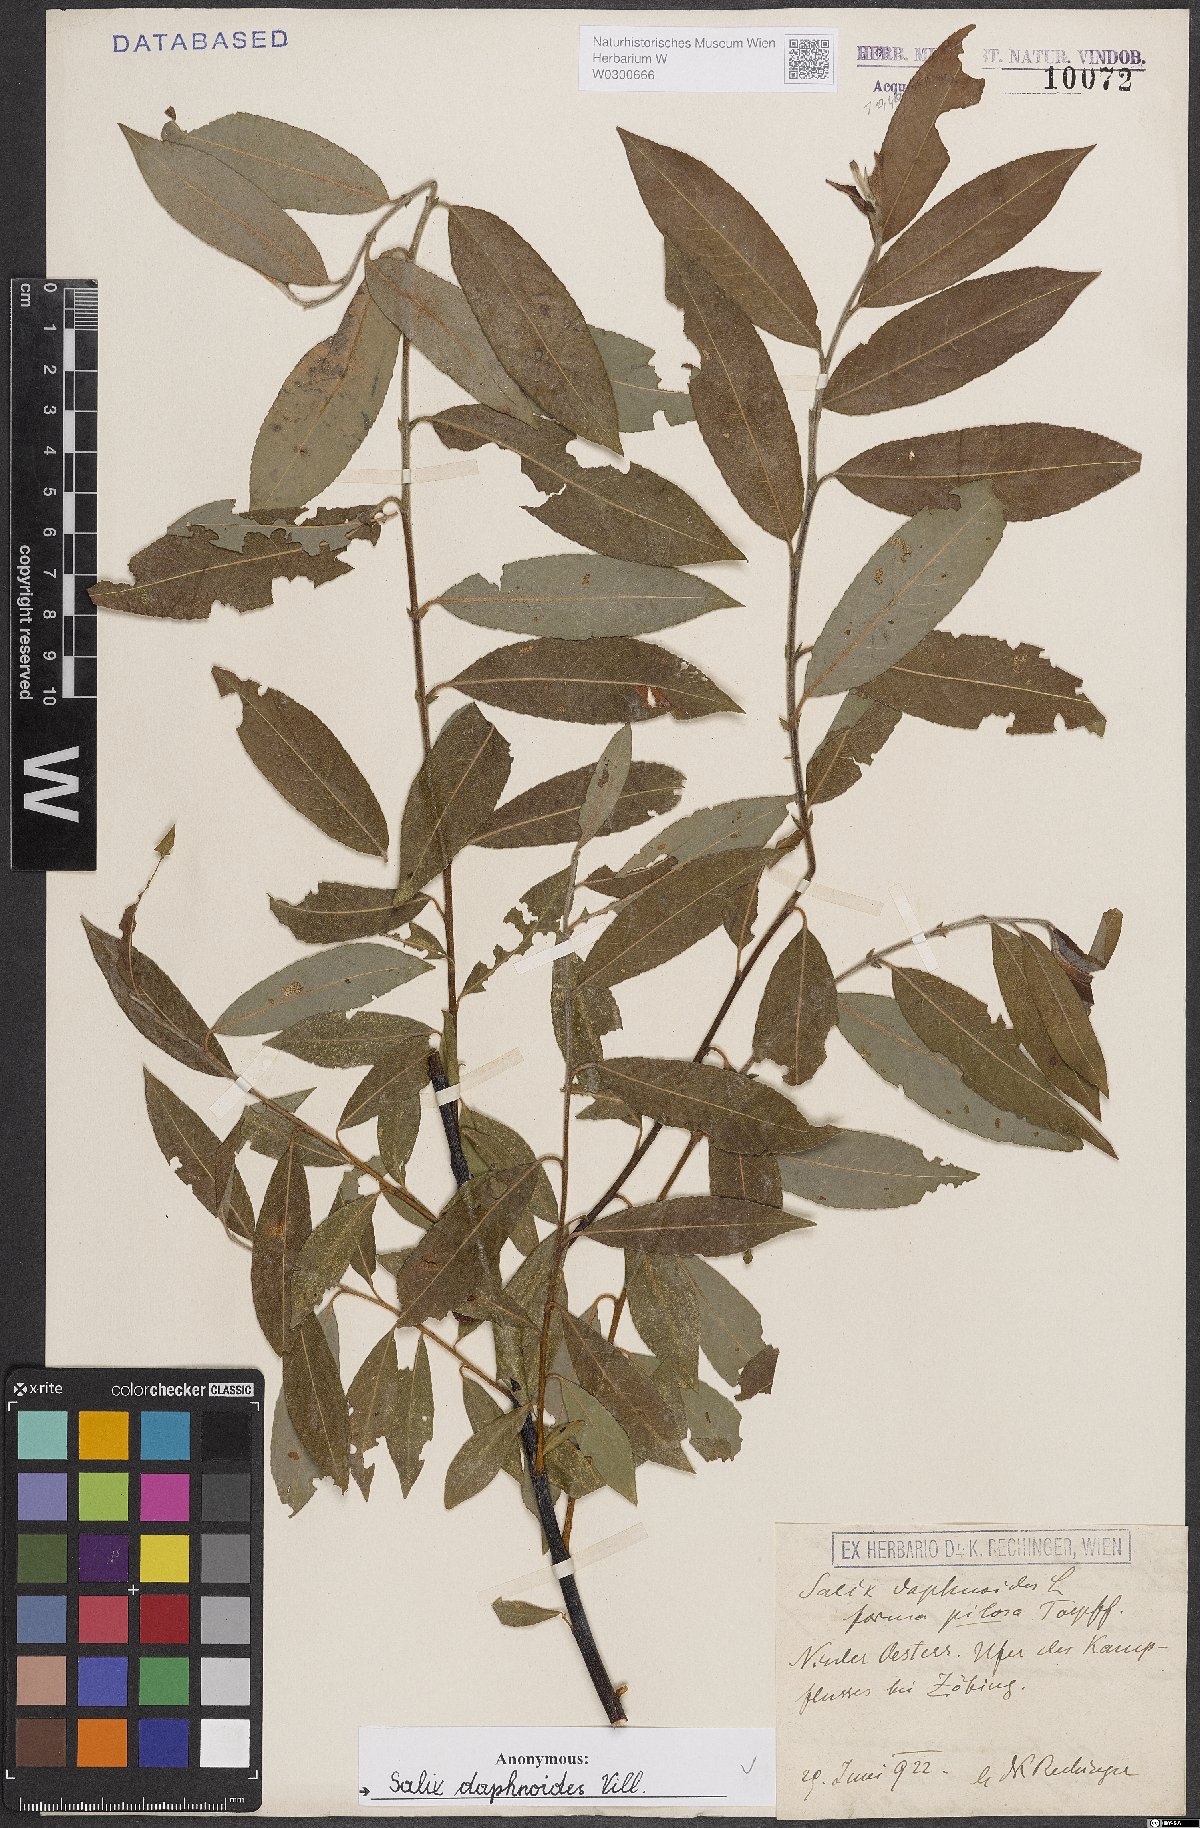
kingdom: Plantae
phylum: Tracheophyta
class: Magnoliopsida
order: Malpighiales
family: Salicaceae
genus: Salix
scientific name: Salix daphnoides
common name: European violet-willow
